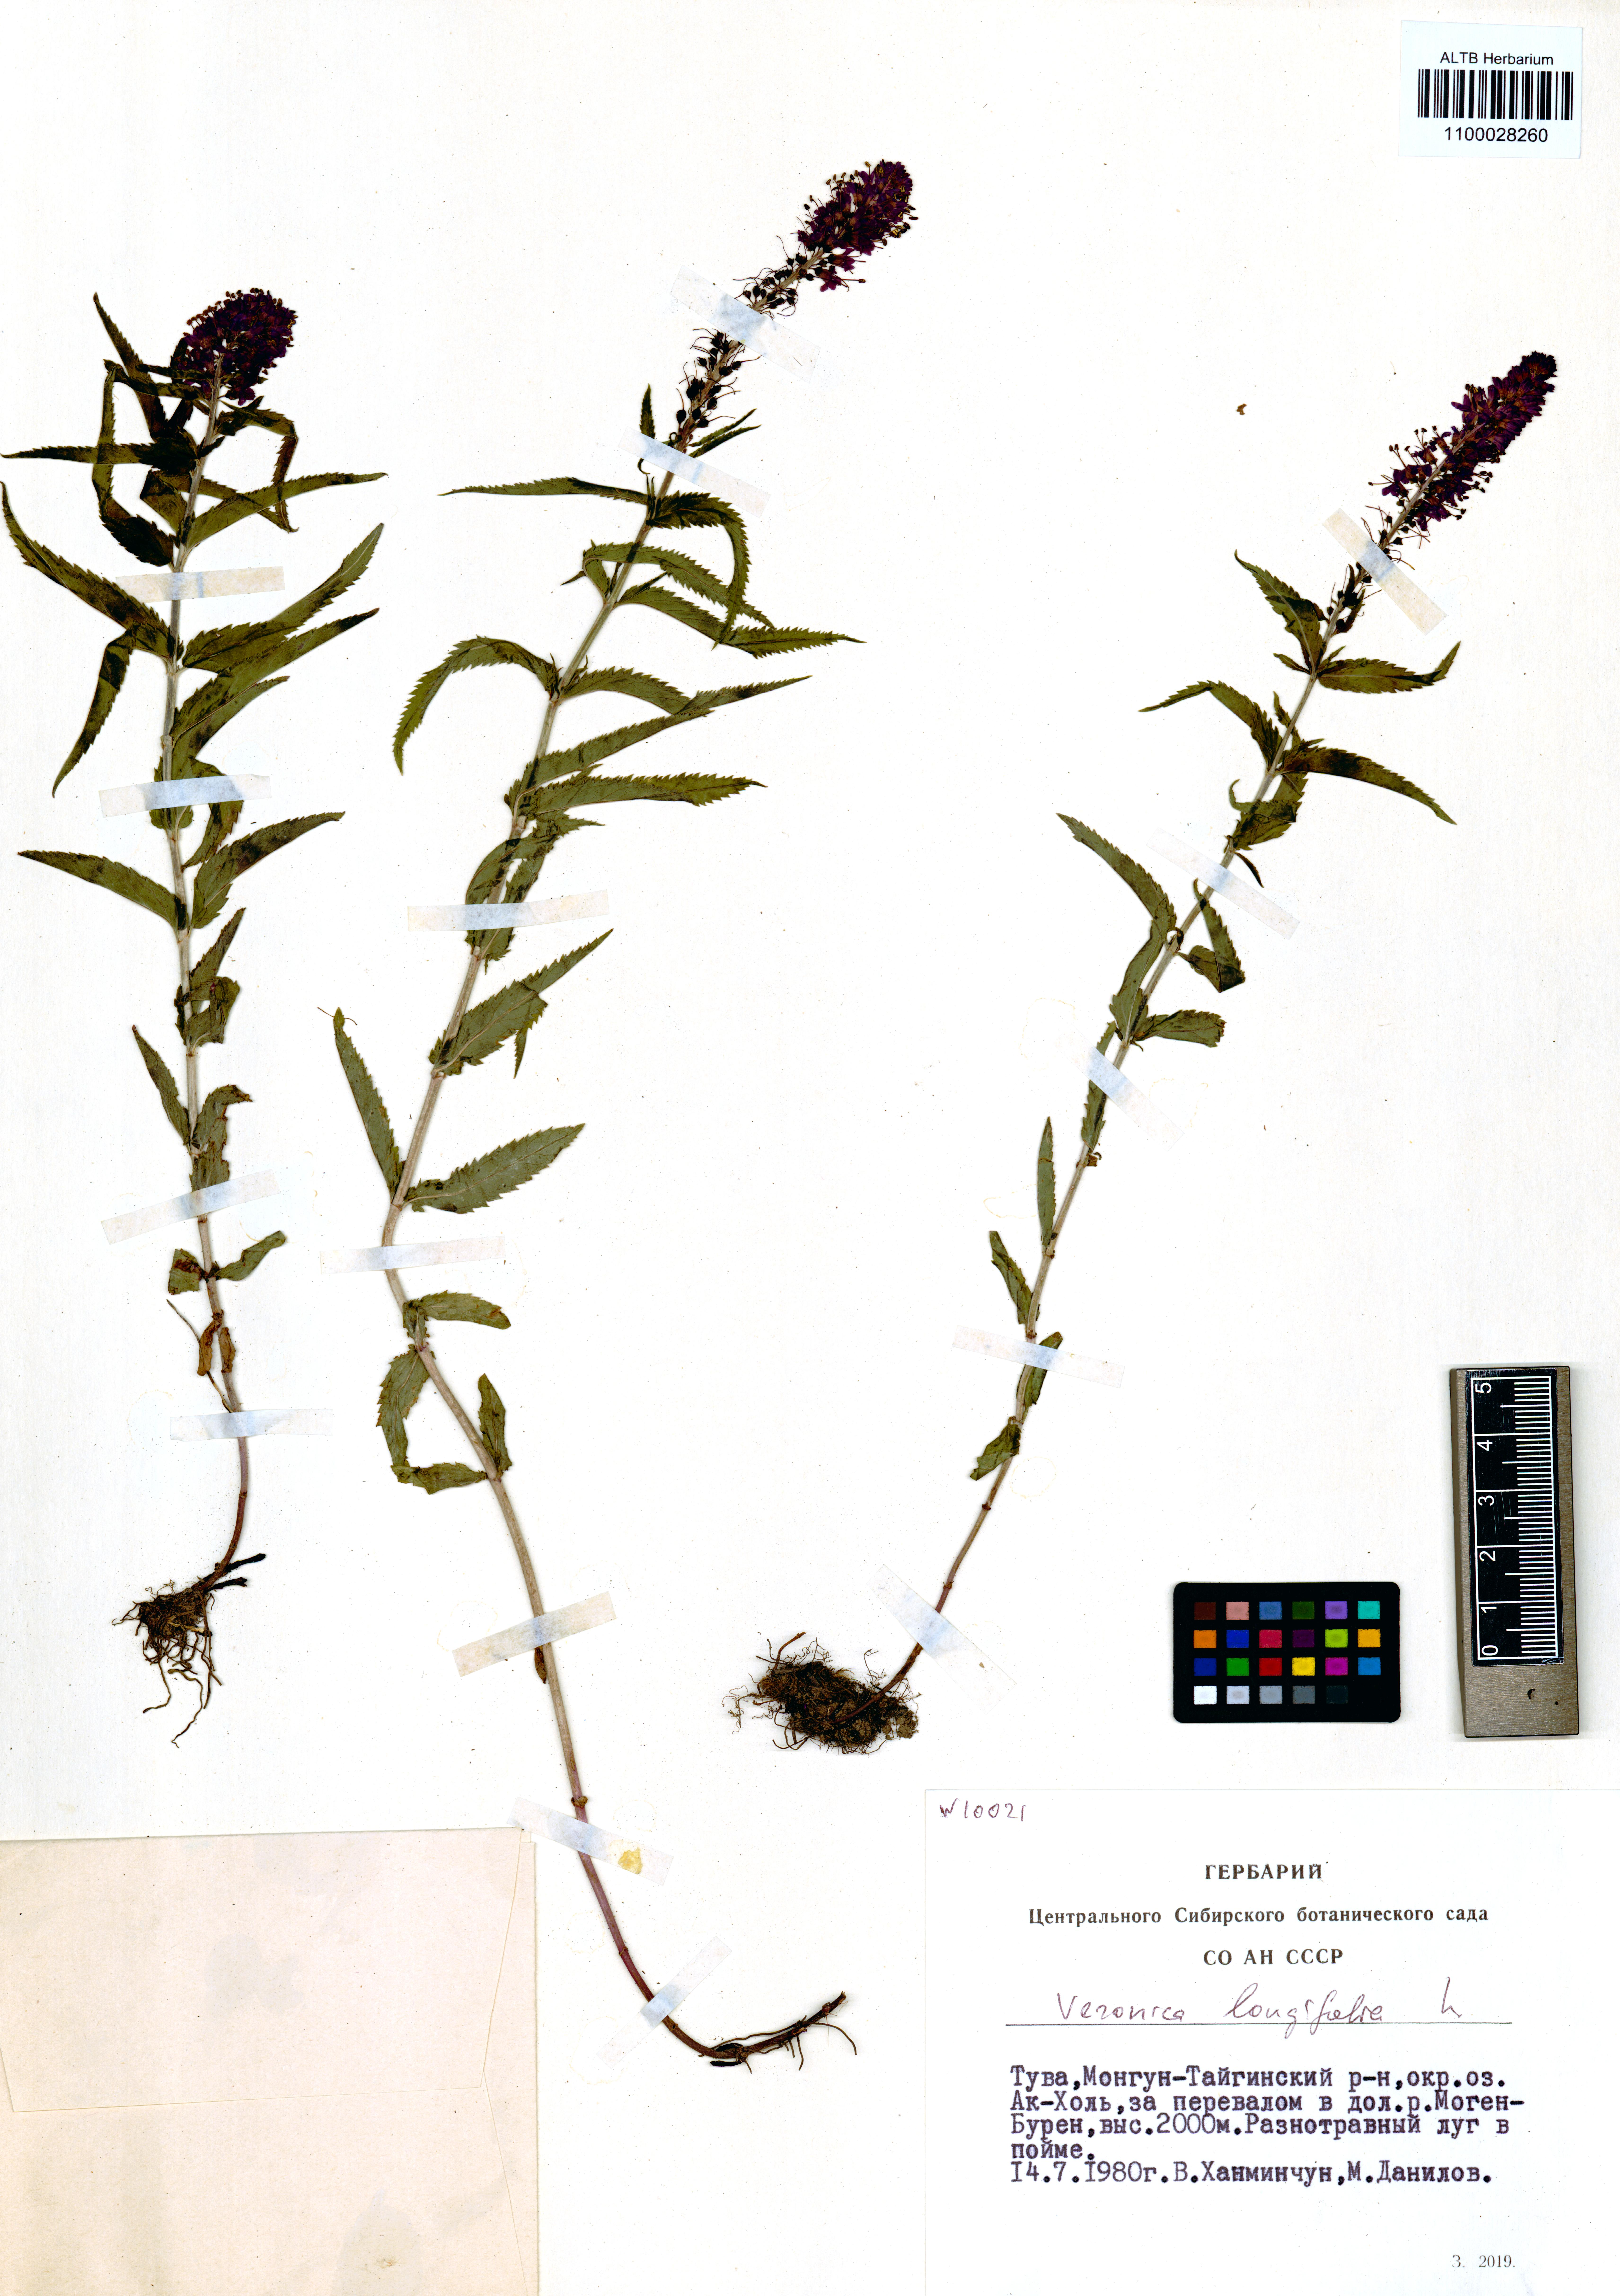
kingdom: Plantae
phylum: Tracheophyta
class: Magnoliopsida
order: Lamiales
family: Plantaginaceae
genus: Veronica
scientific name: Veronica longifolia
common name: Garden speedwell
